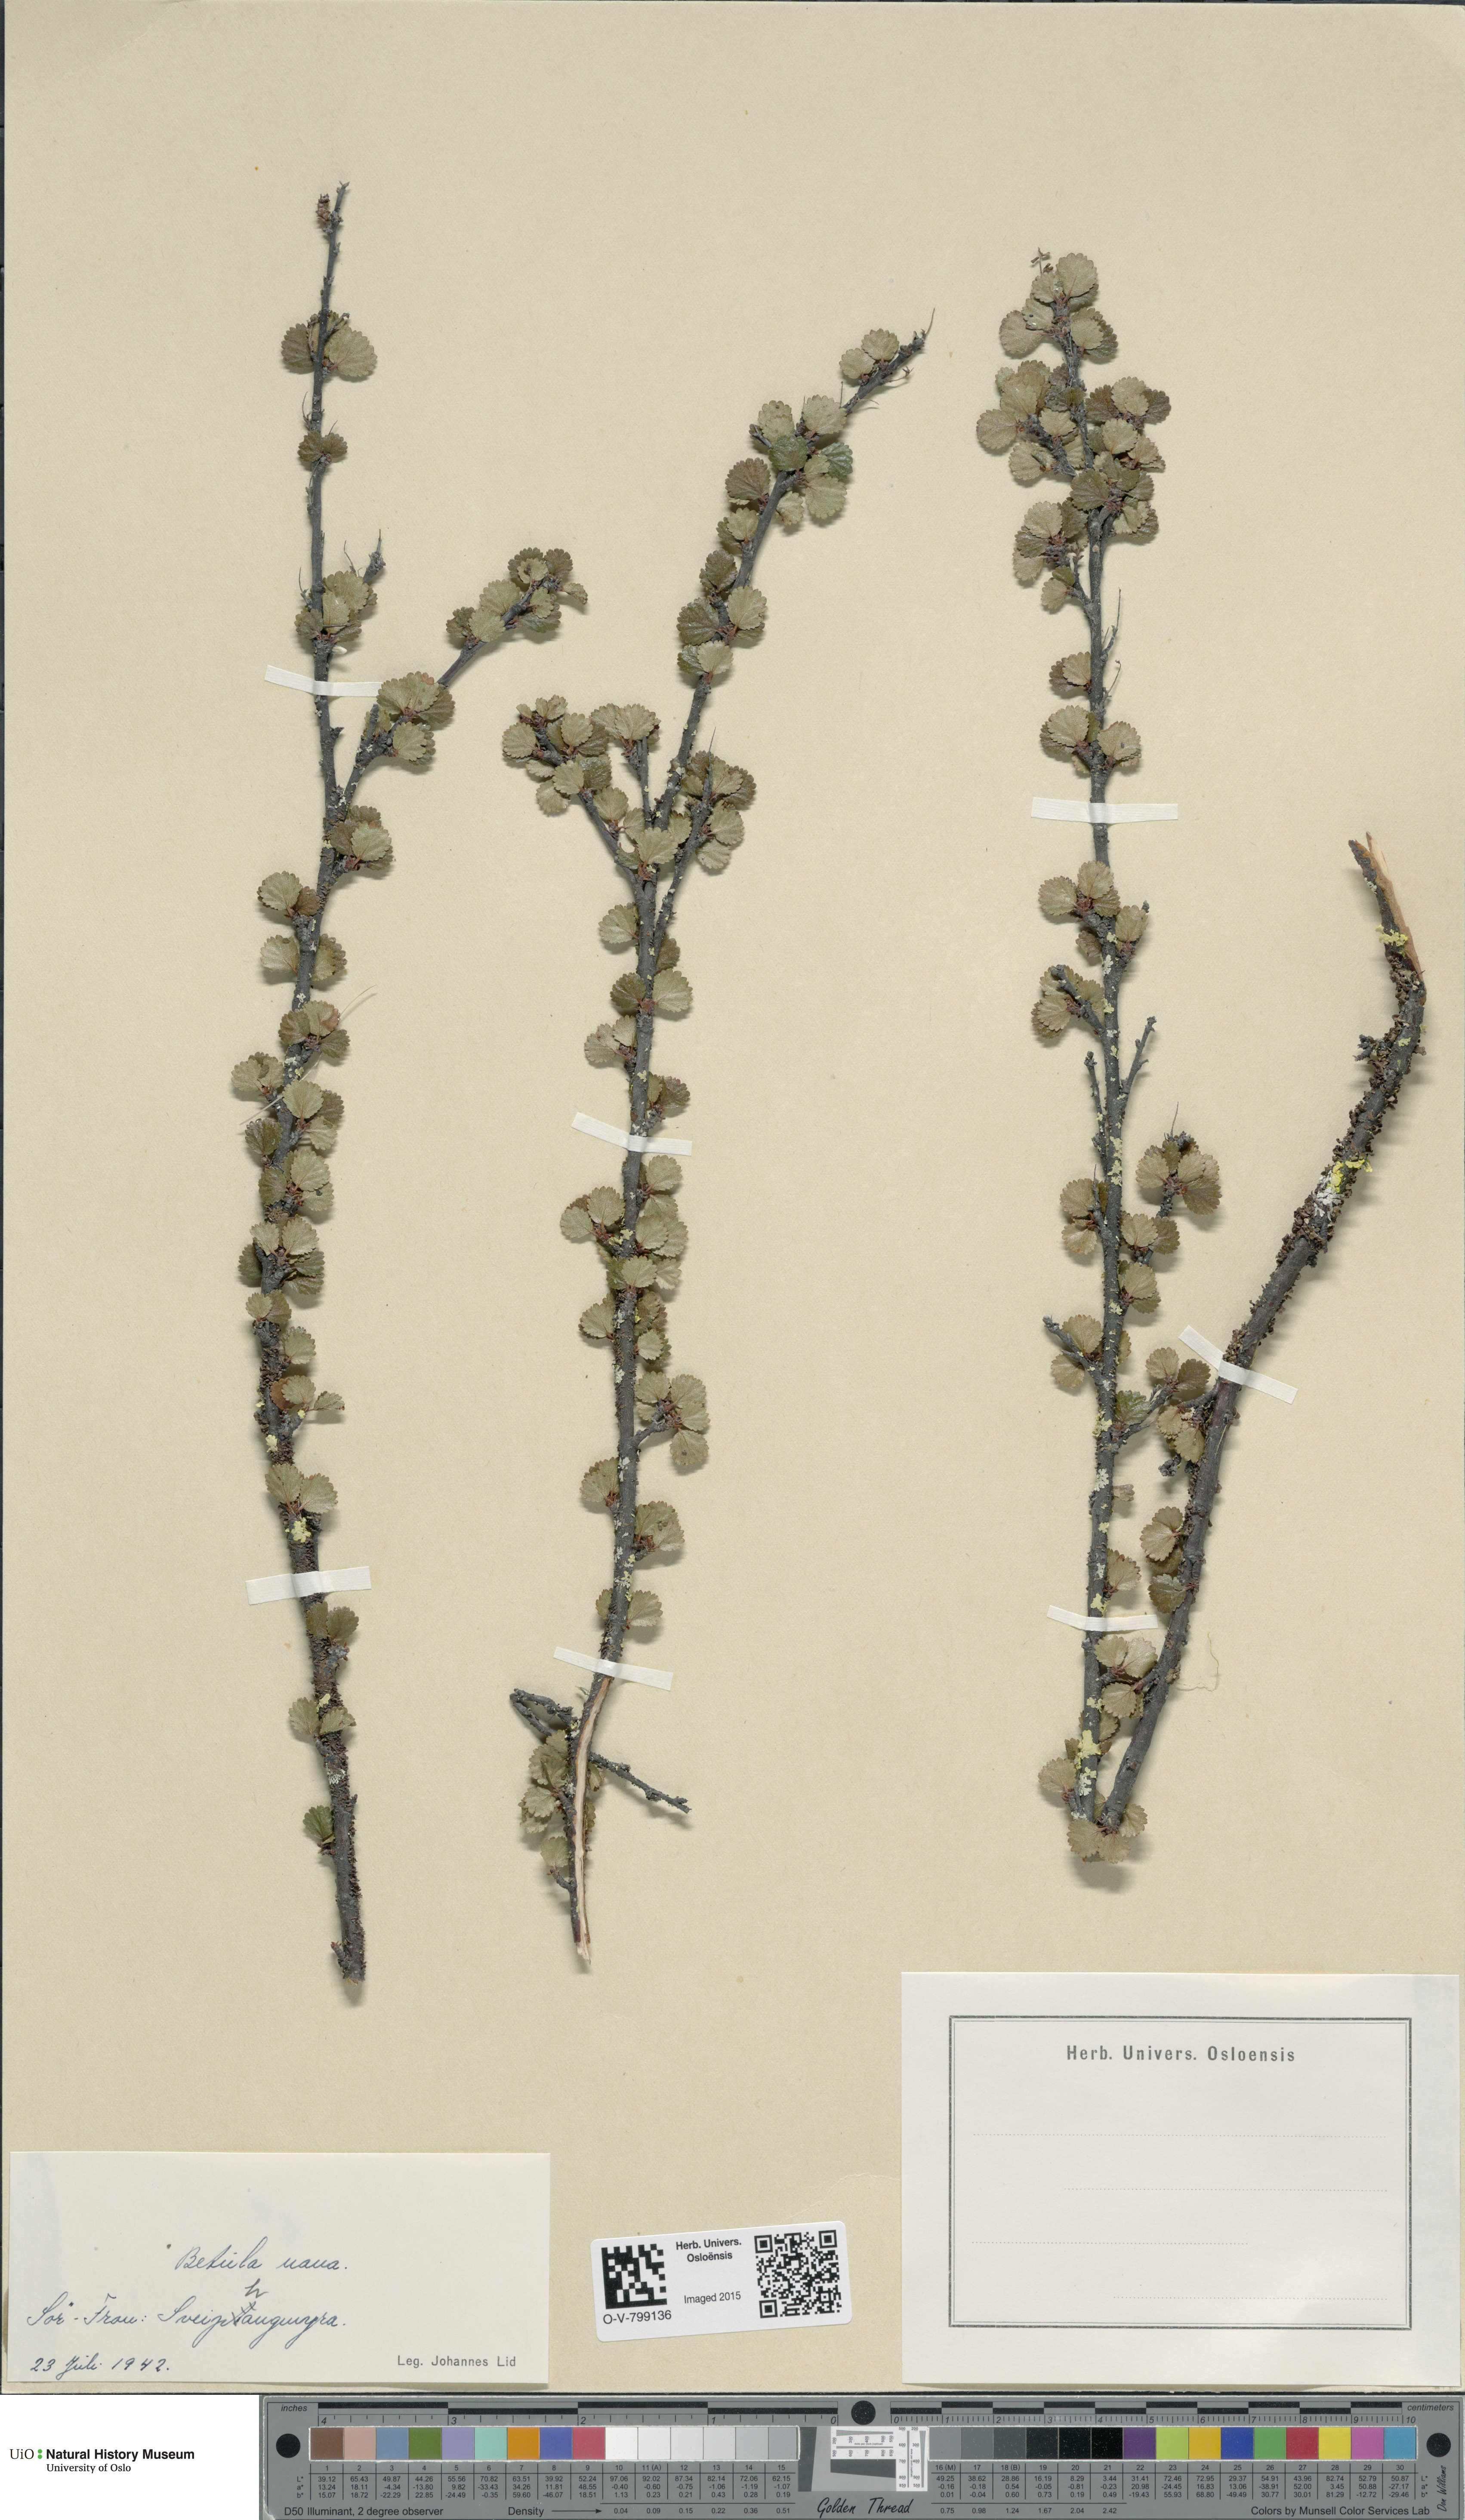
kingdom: Plantae
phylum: Tracheophyta
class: Magnoliopsida
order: Fagales
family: Betulaceae
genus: Betula
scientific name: Betula nana
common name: Arctic dwarf birch
